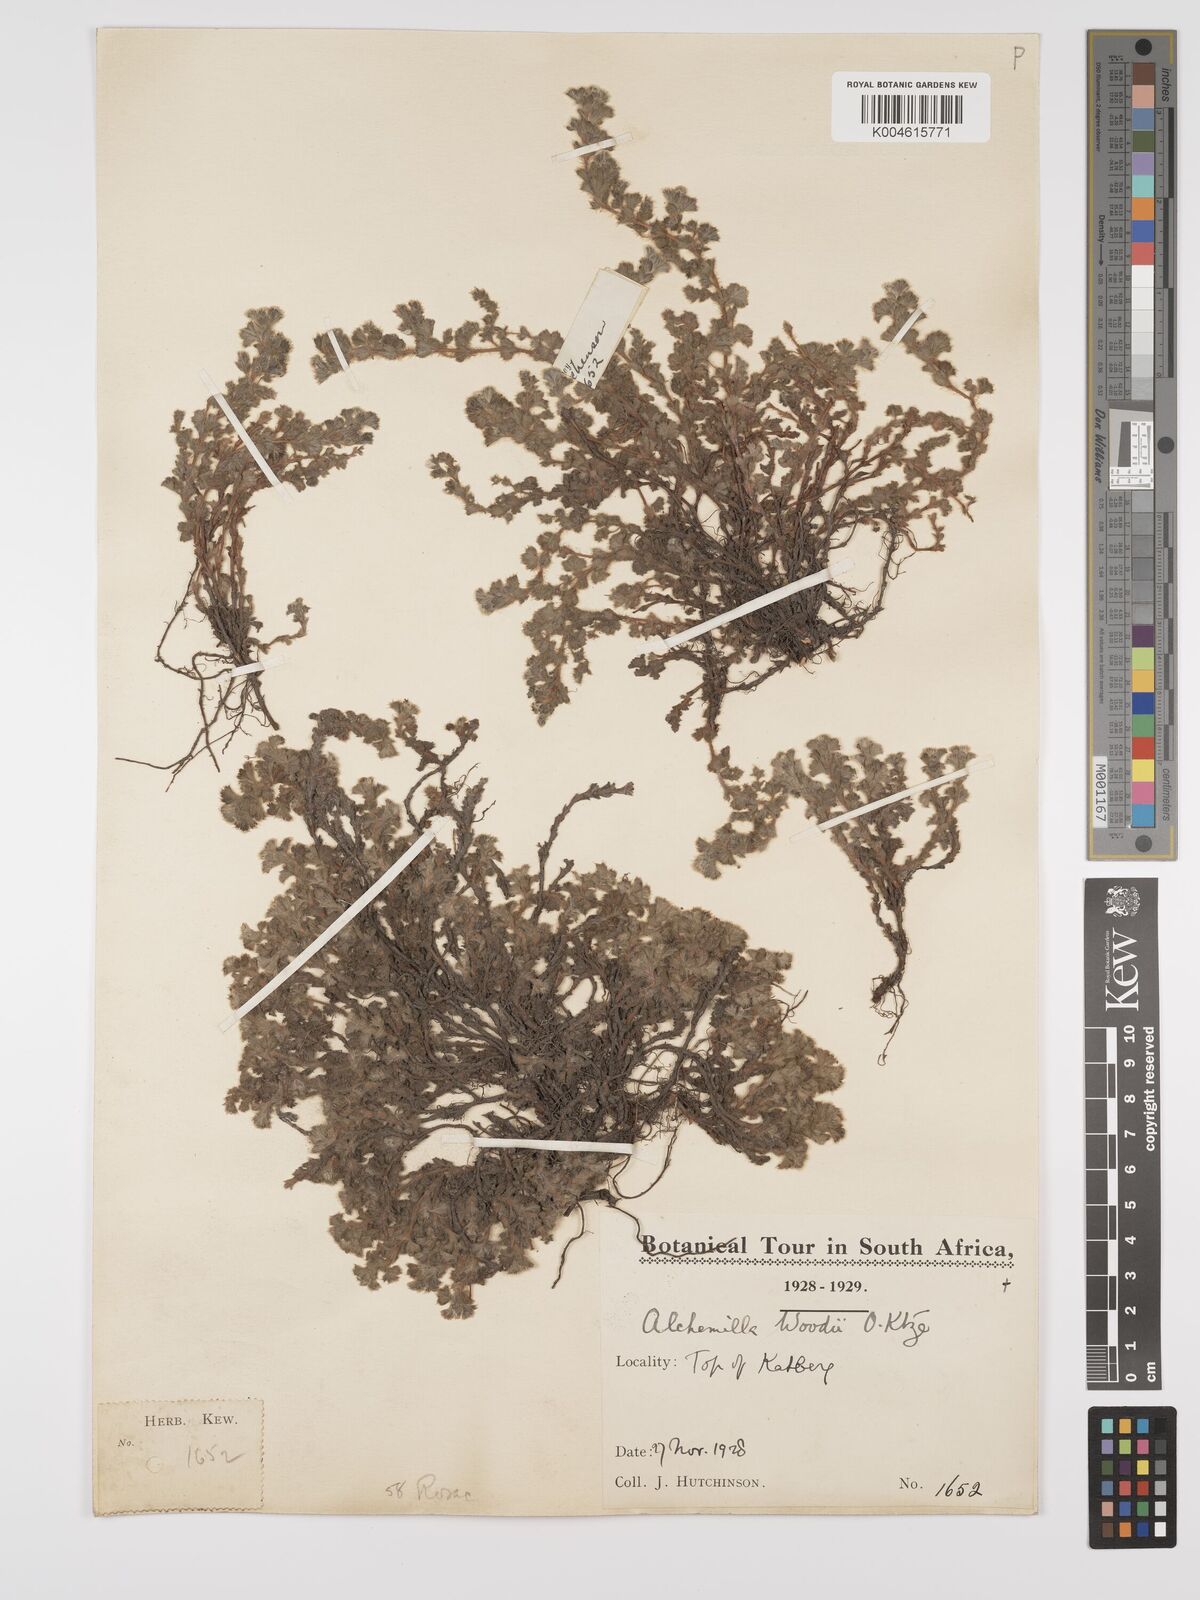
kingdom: Plantae
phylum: Tracheophyta
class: Magnoliopsida
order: Rosales
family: Rosaceae
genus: Alchemilla
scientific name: Alchemilla woodii
